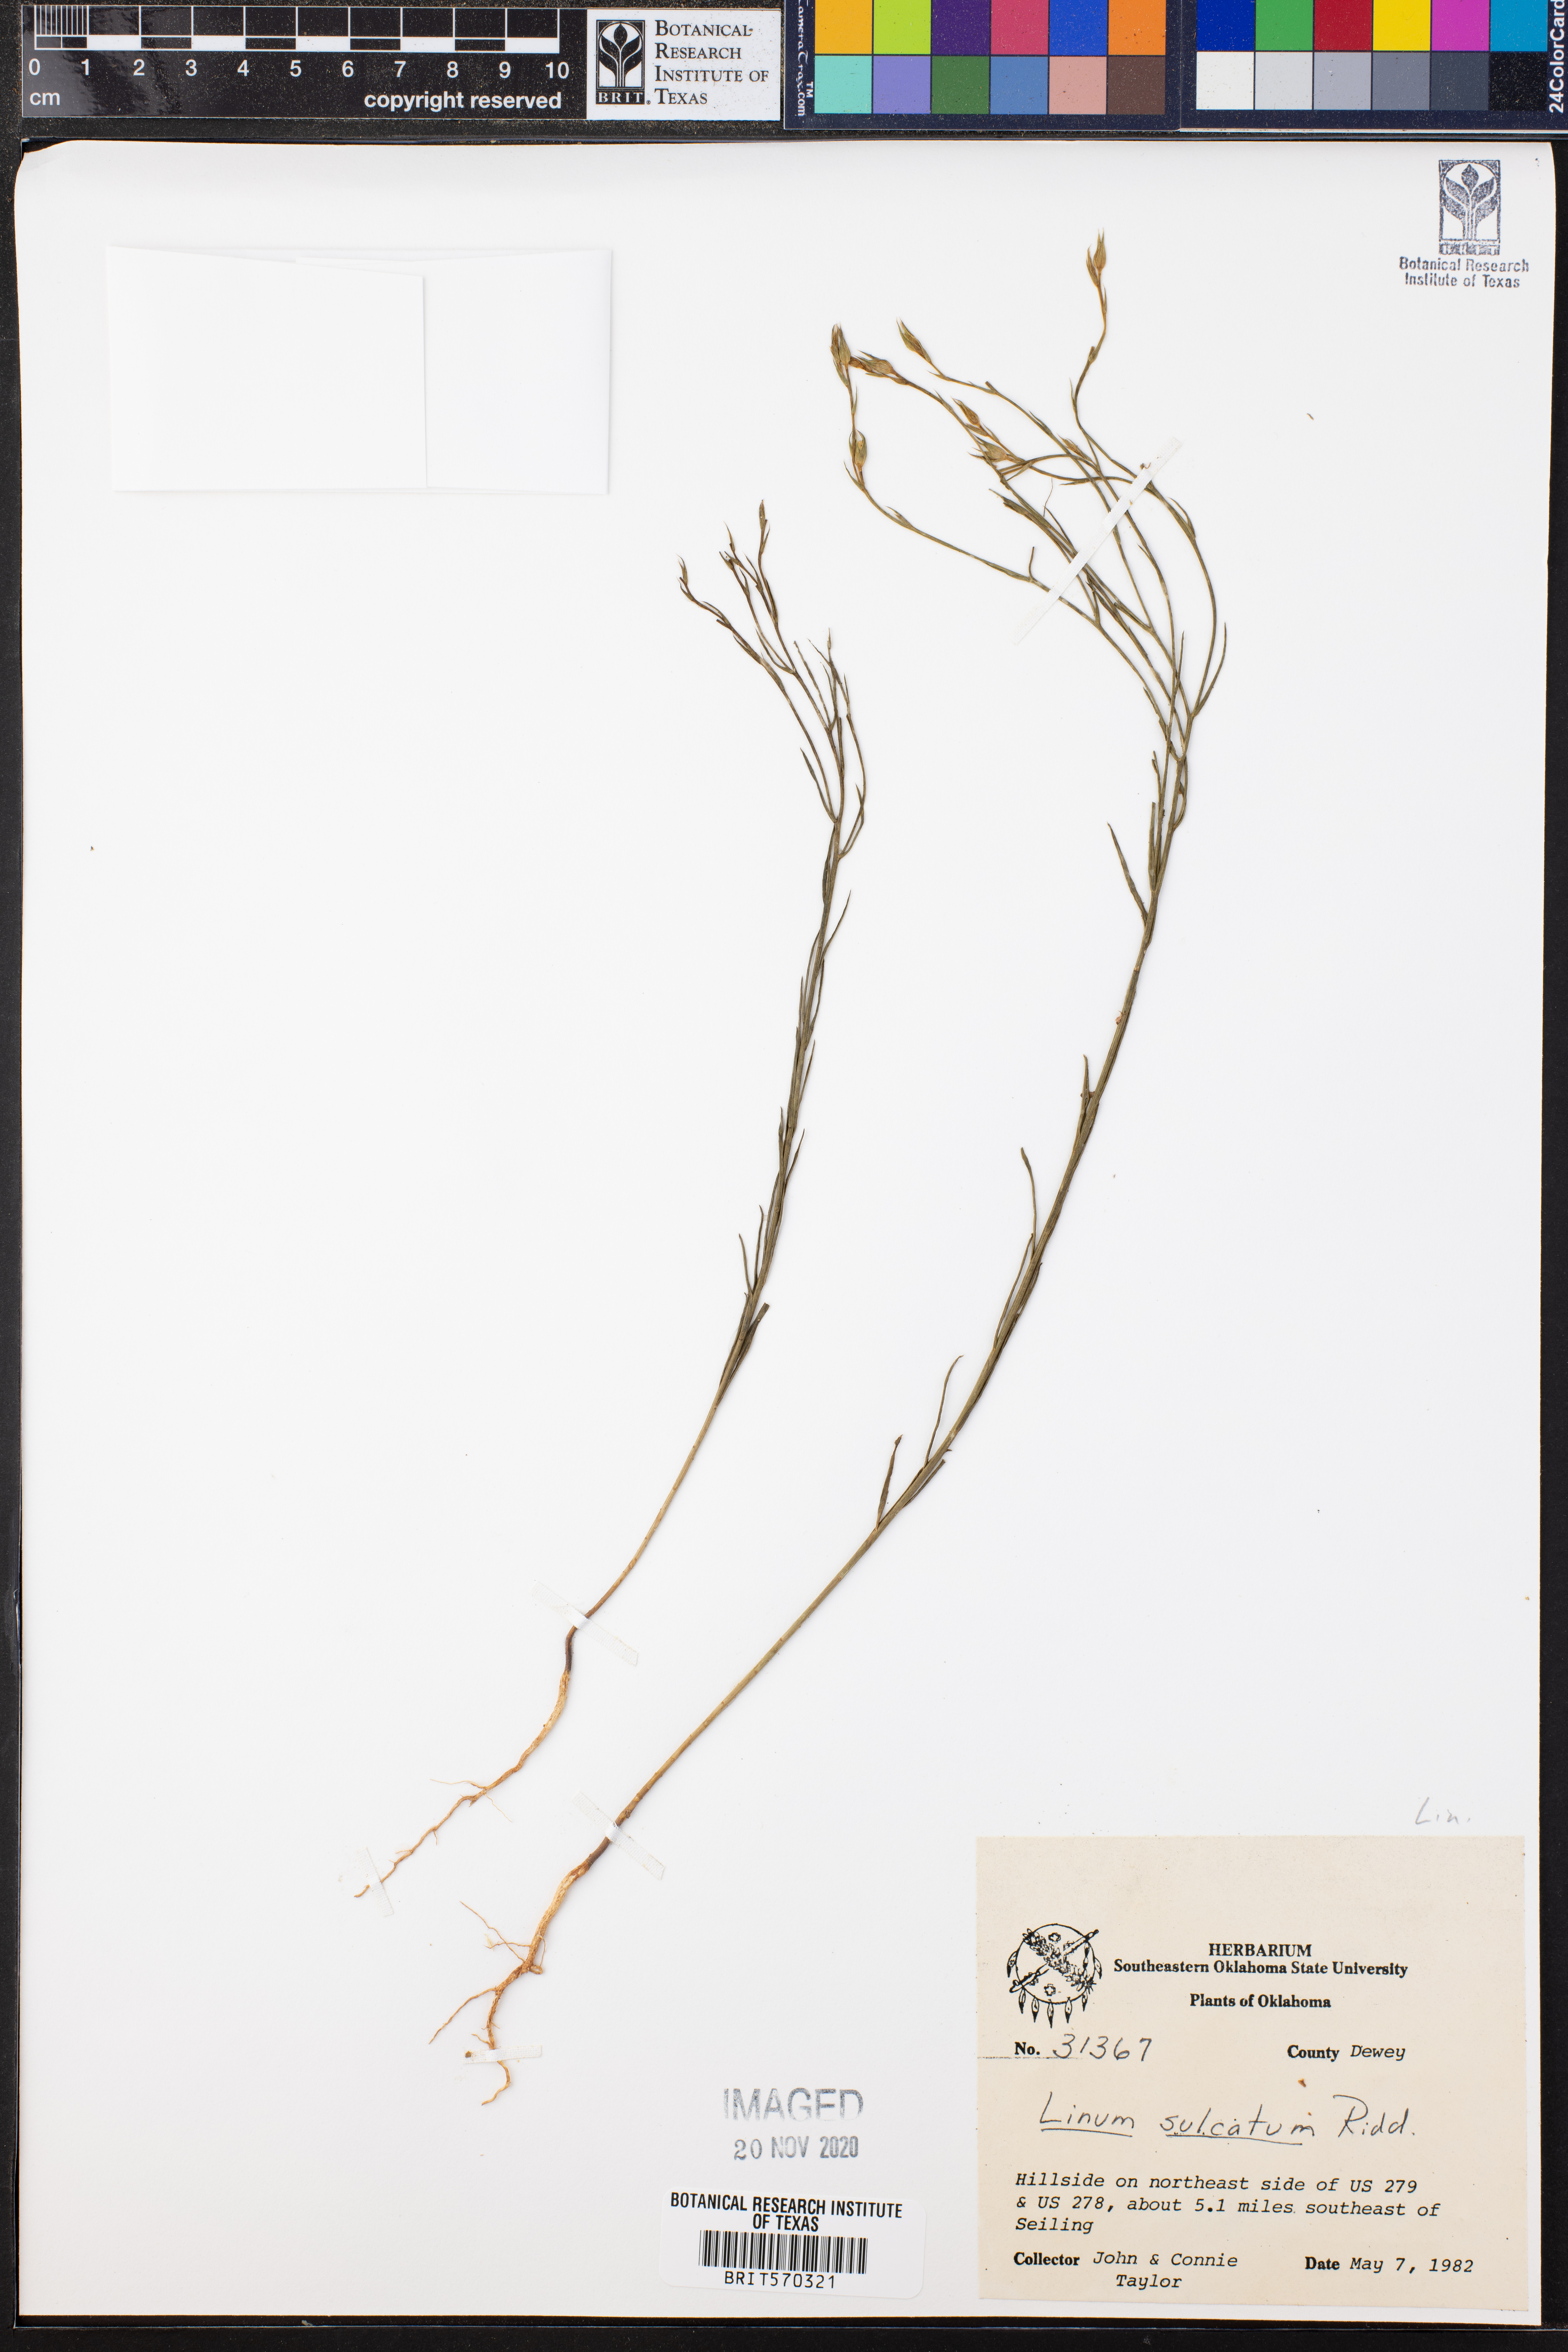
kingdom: Plantae
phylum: Tracheophyta
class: Magnoliopsida
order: Malpighiales
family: Linaceae
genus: Linum
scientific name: Linum sulcatum
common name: Grooved flax
